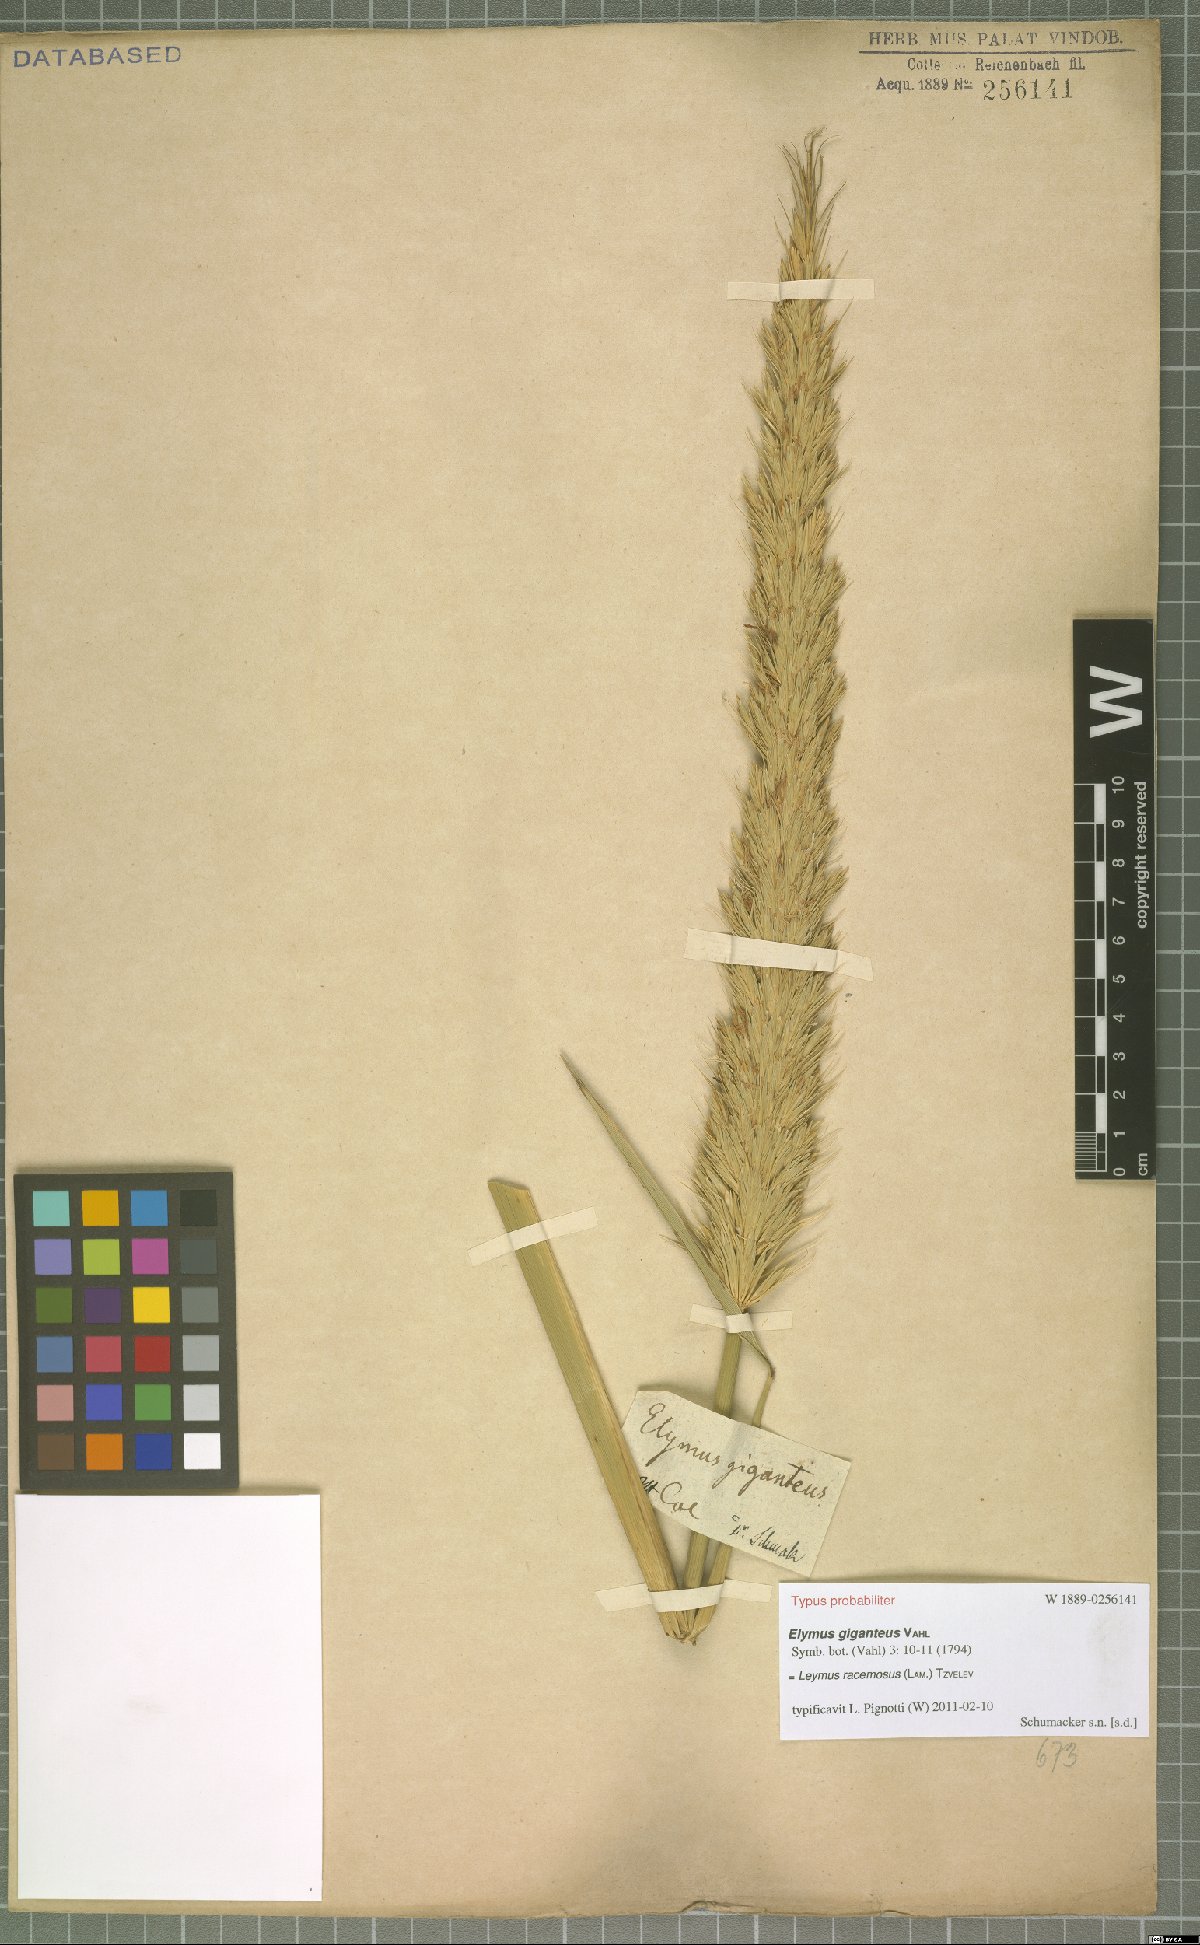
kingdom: Plantae
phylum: Tracheophyta
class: Liliopsida
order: Poales
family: Poaceae
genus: Leymus
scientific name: Leymus racemosus
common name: Mammoth wildrye
